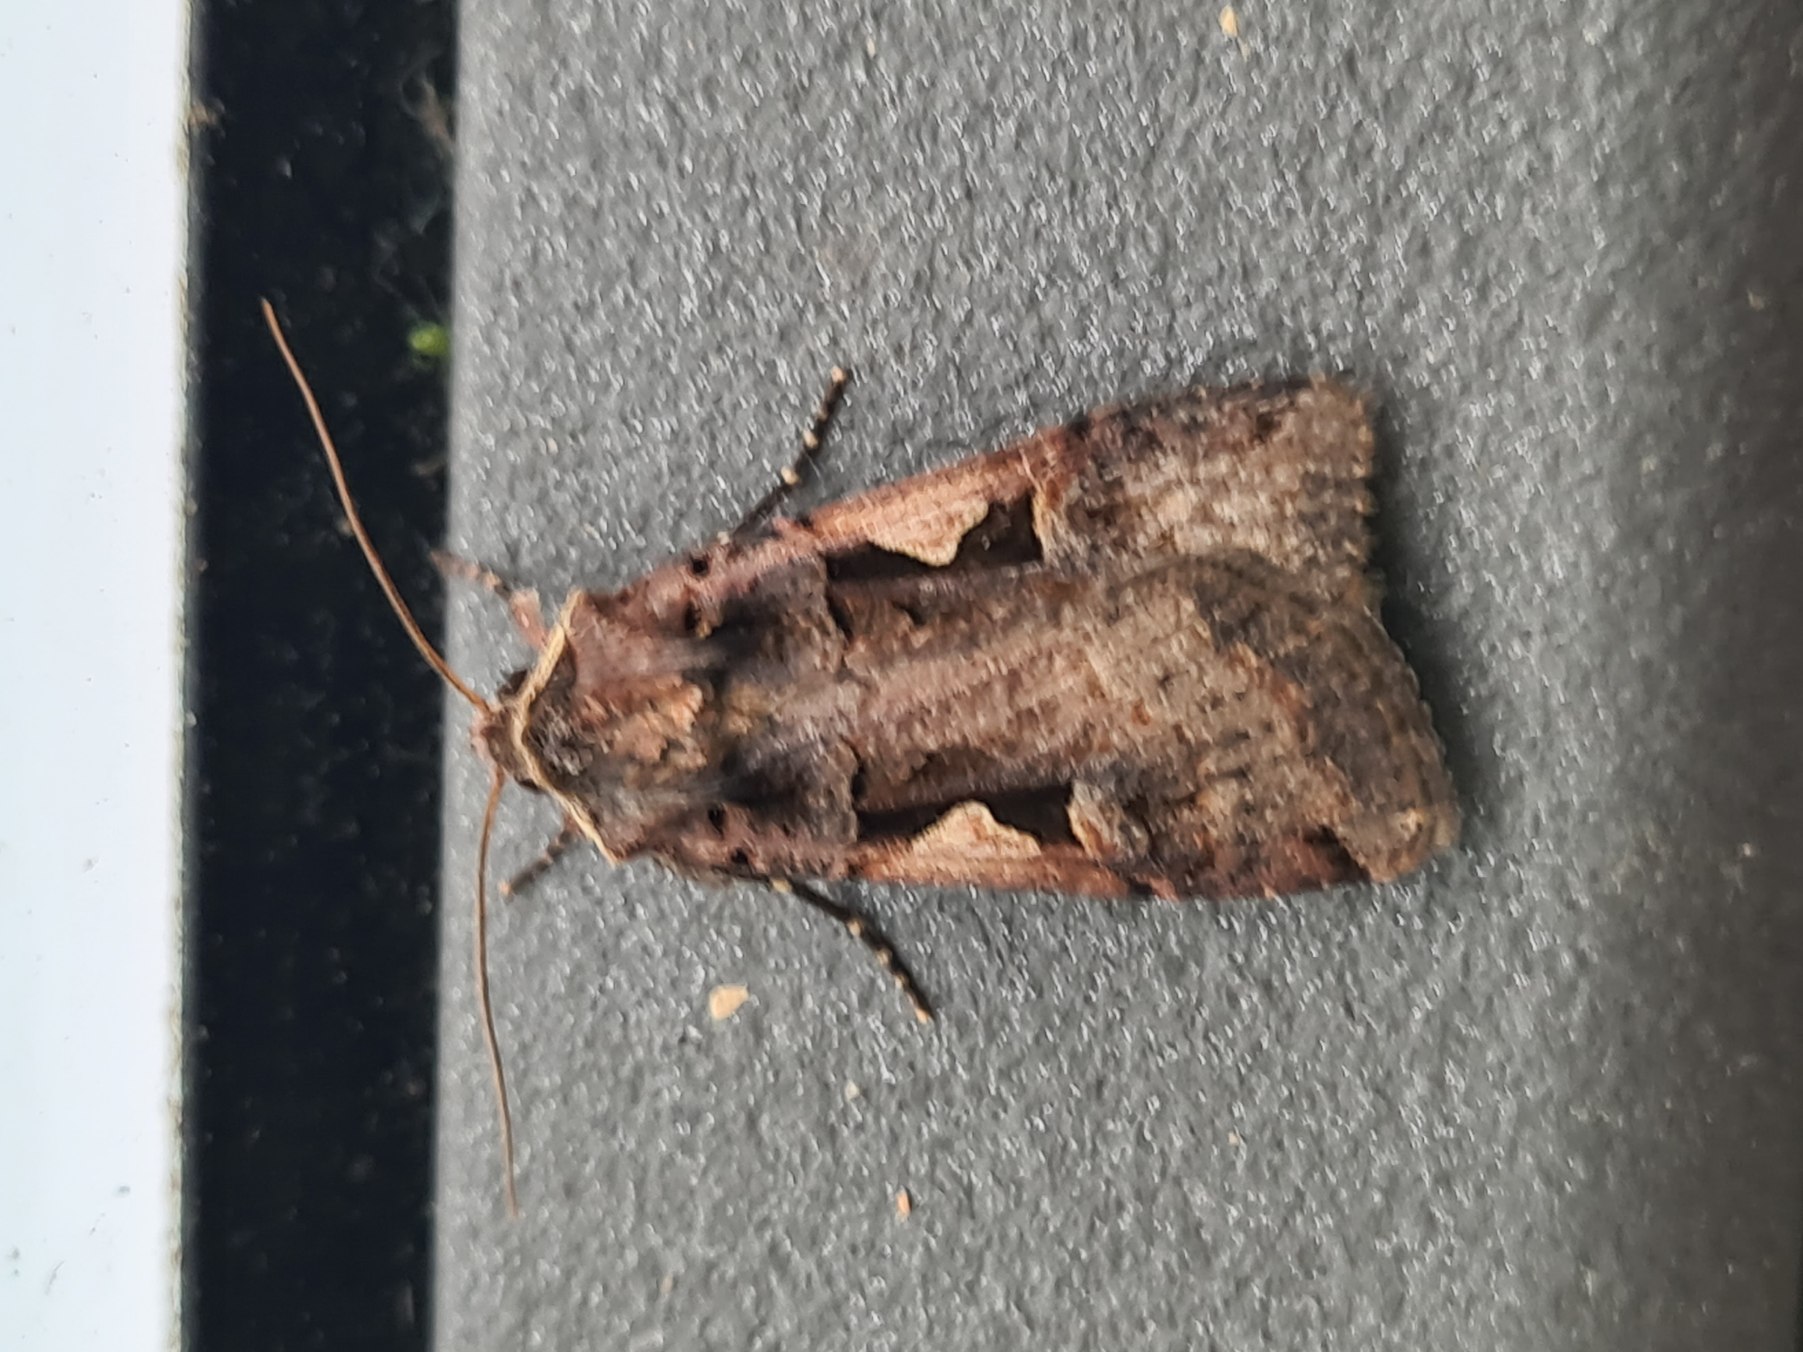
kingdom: Animalia
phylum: Arthropoda
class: Insecta
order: Lepidoptera
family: Noctuidae
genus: Xestia
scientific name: Xestia c-nigrum
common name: Det sorte c
